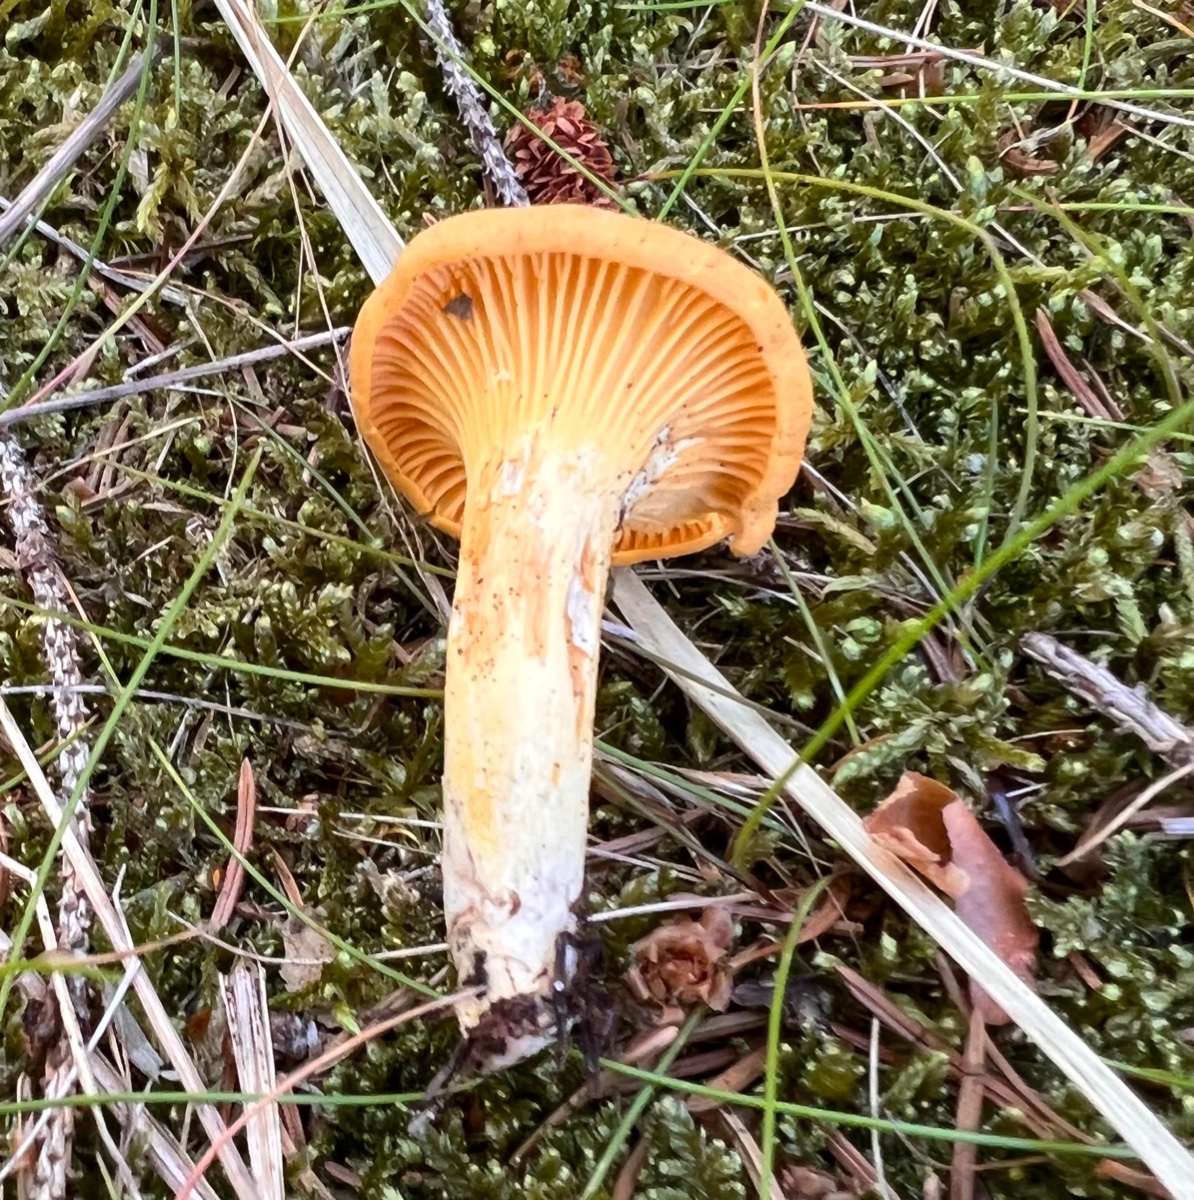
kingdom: Fungi
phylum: Basidiomycota
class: Agaricomycetes
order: Cantharellales
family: Hydnaceae
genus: Cantharellus
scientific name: Cantharellus cibarius
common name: almindelig kantarel
